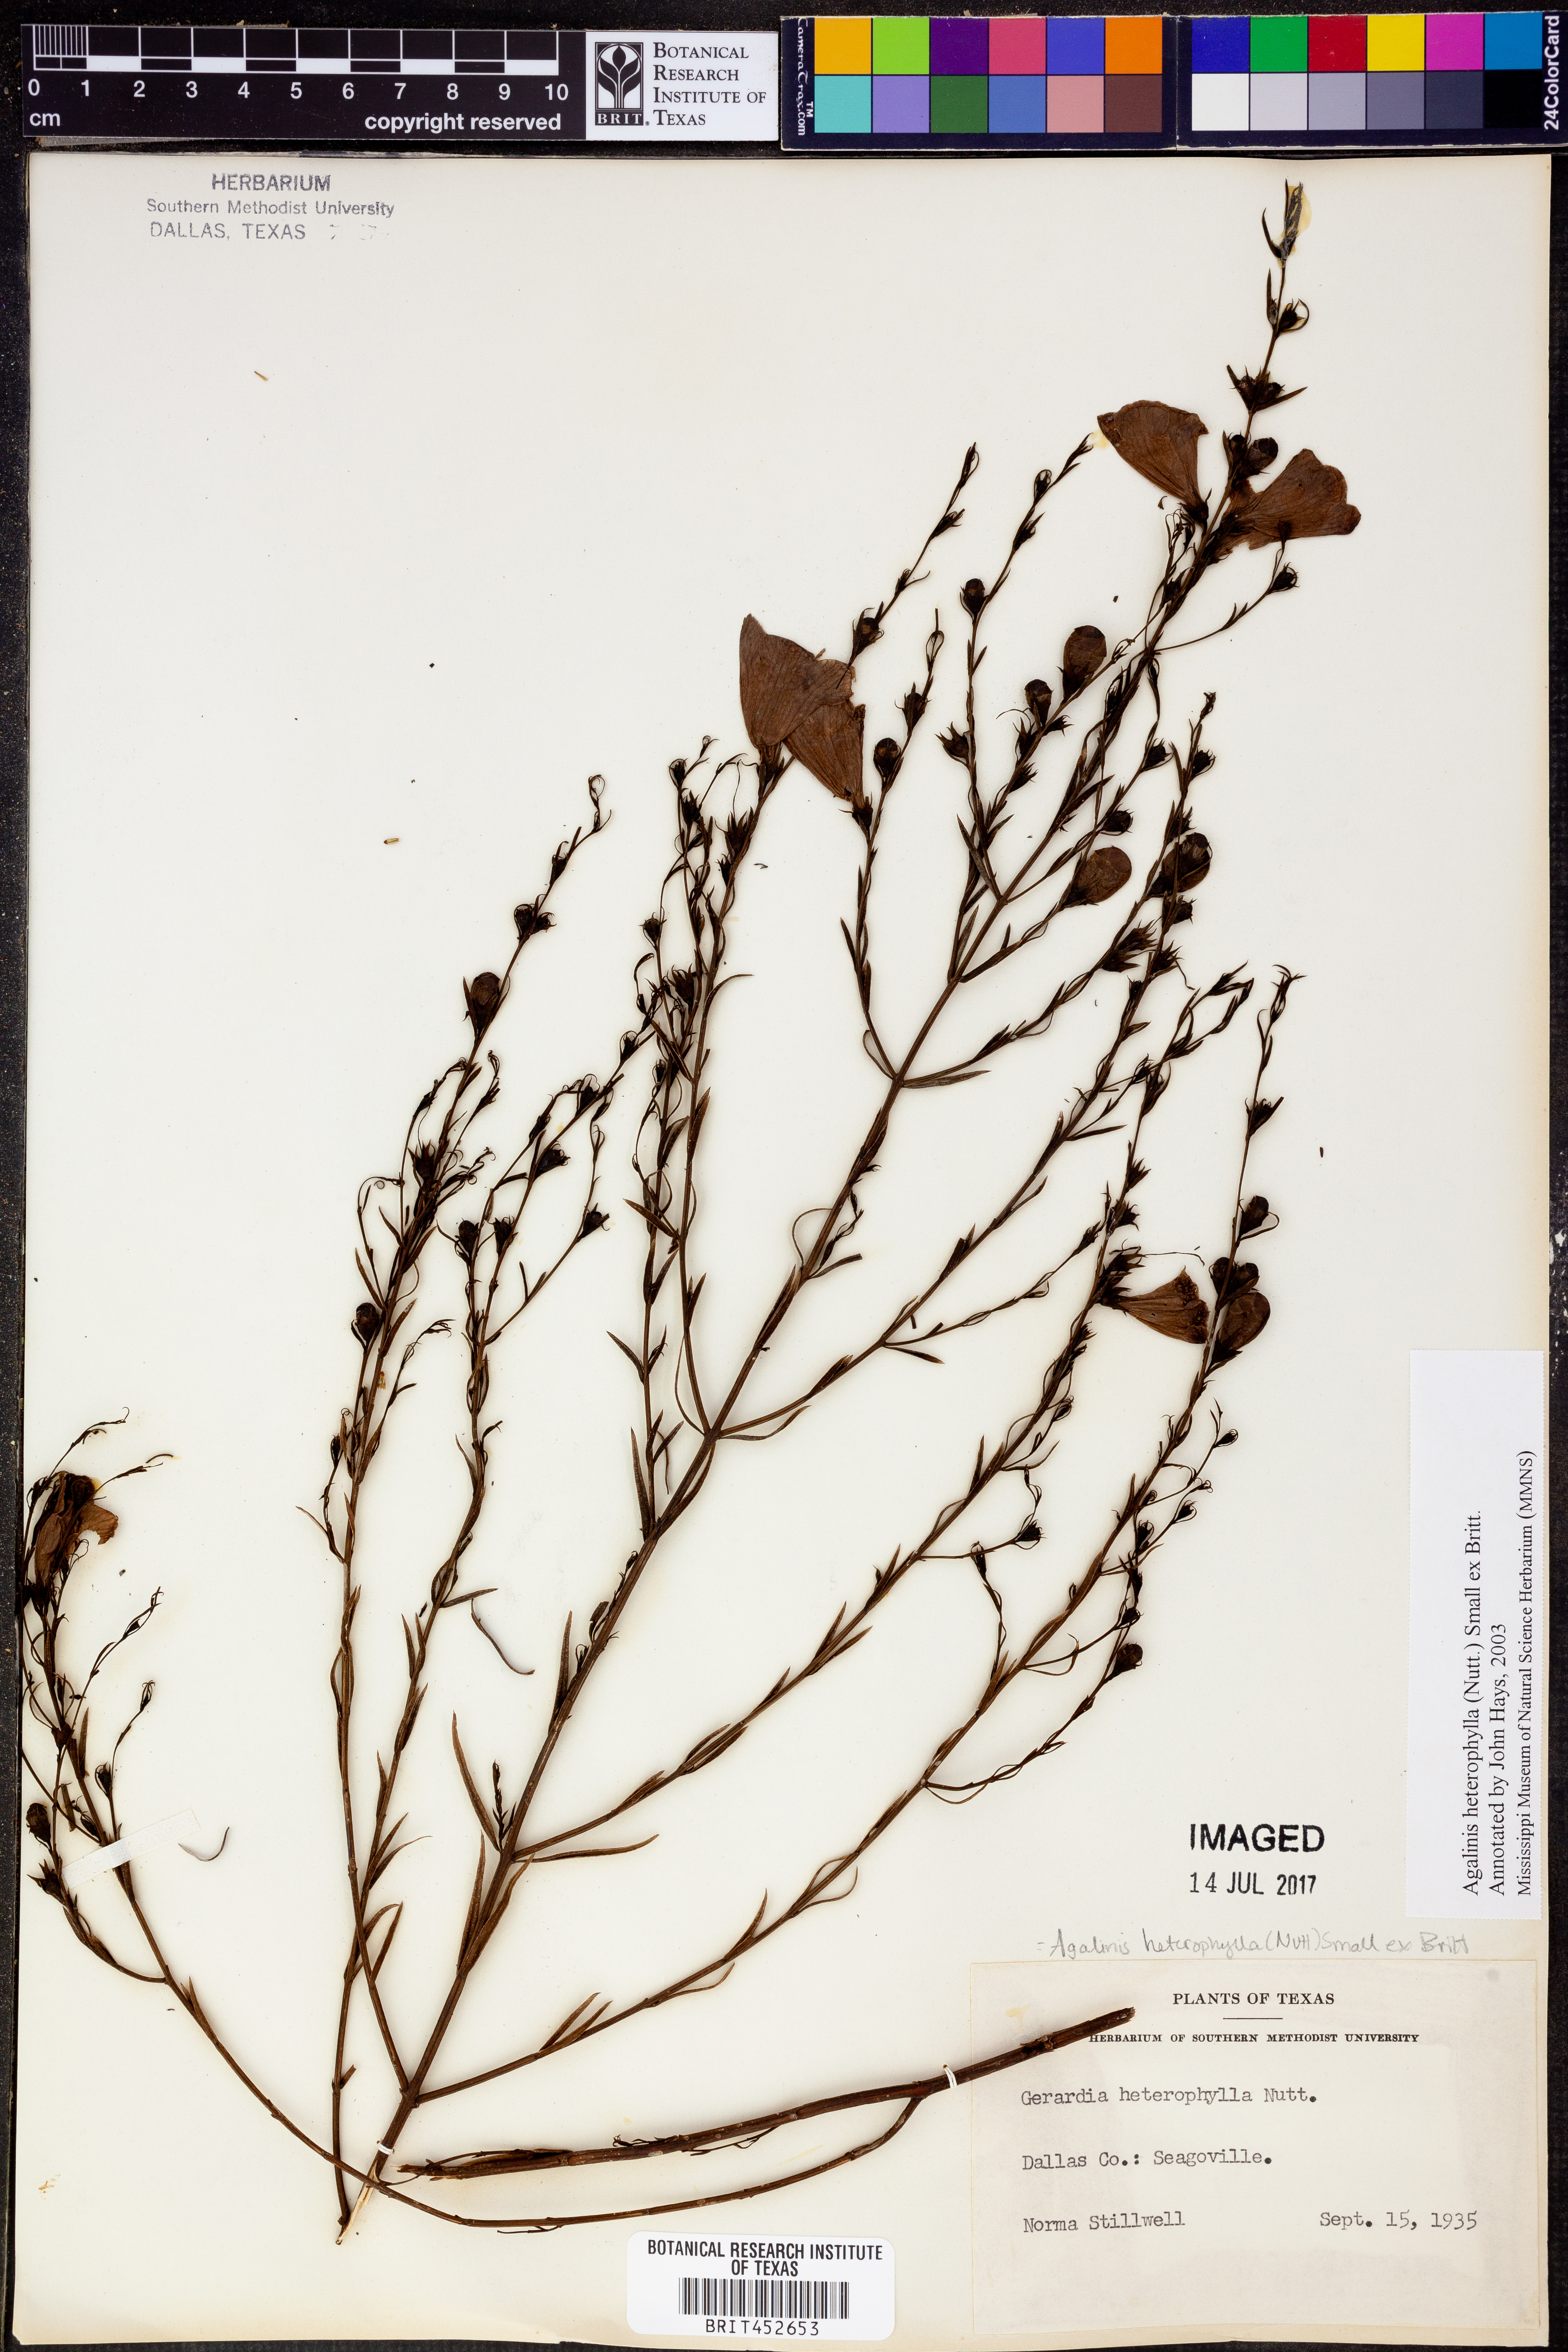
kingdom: Plantae
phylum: Tracheophyta
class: Magnoliopsida
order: Lamiales
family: Orobanchaceae
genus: Agalinis
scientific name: Agalinis heterophylla
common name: Prairie agalinis
